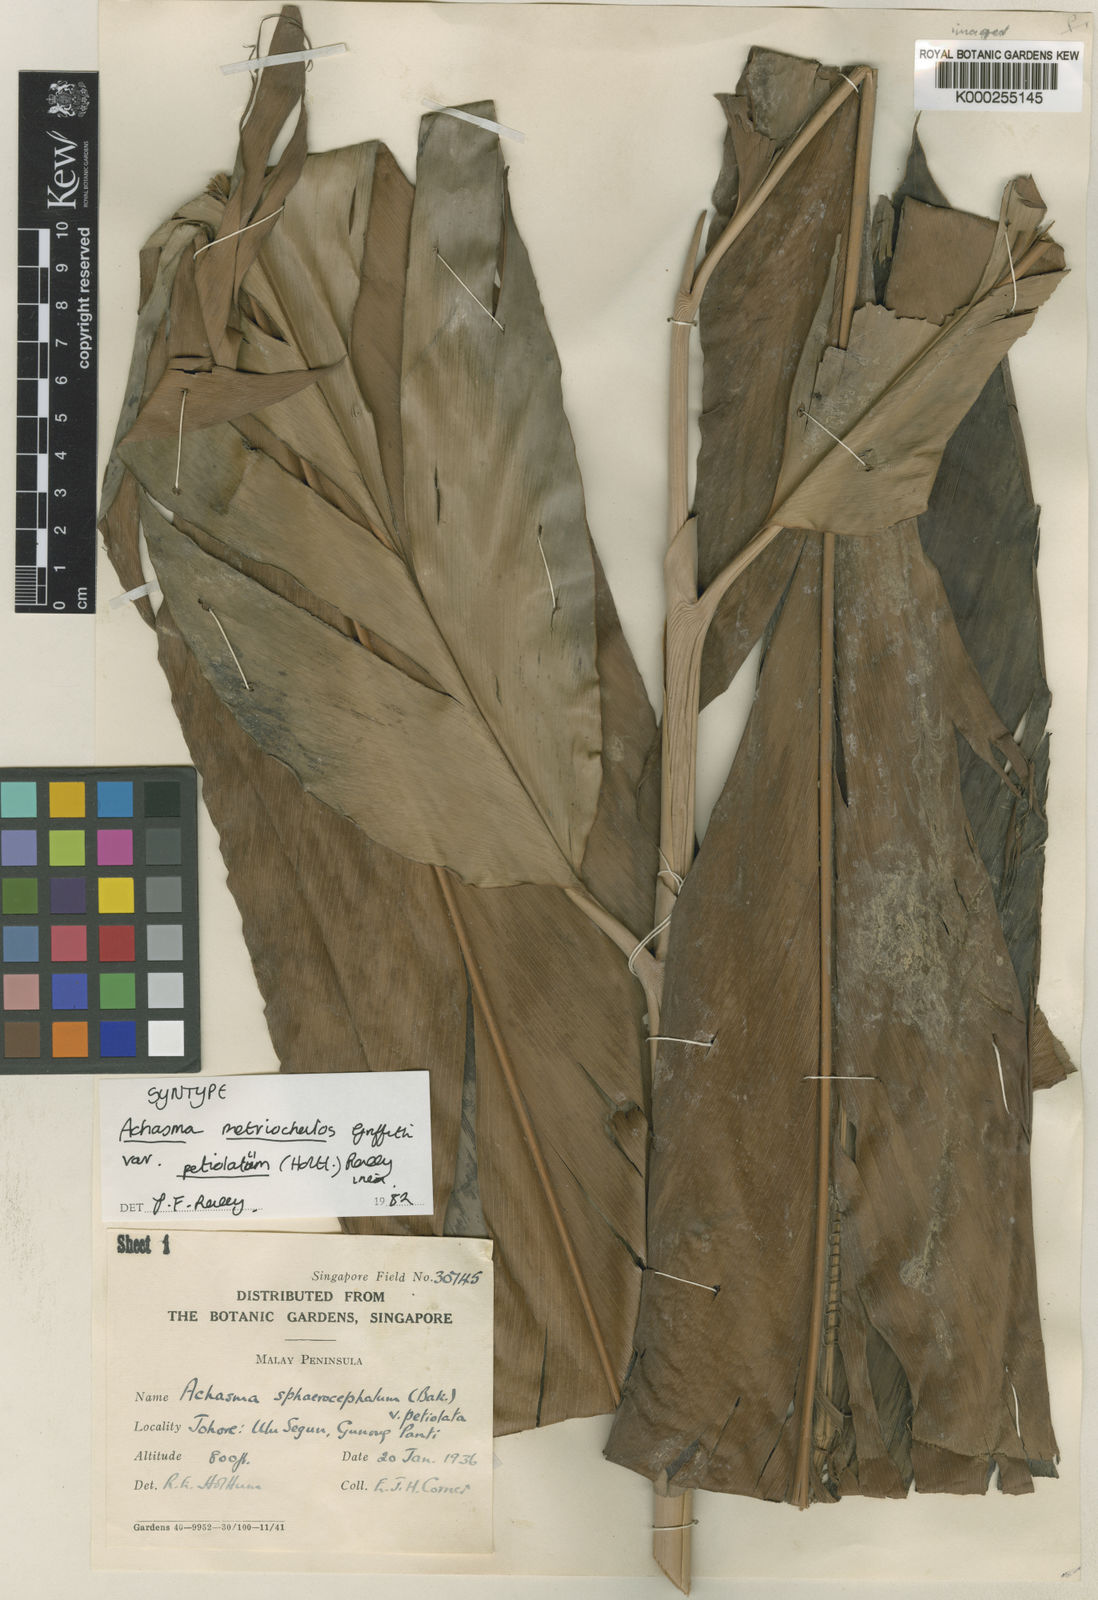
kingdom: Plantae
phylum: Tracheophyta
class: Liliopsida
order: Zingiberales
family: Zingiberaceae
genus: Etlingera
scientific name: Etlingera metriocheilos
